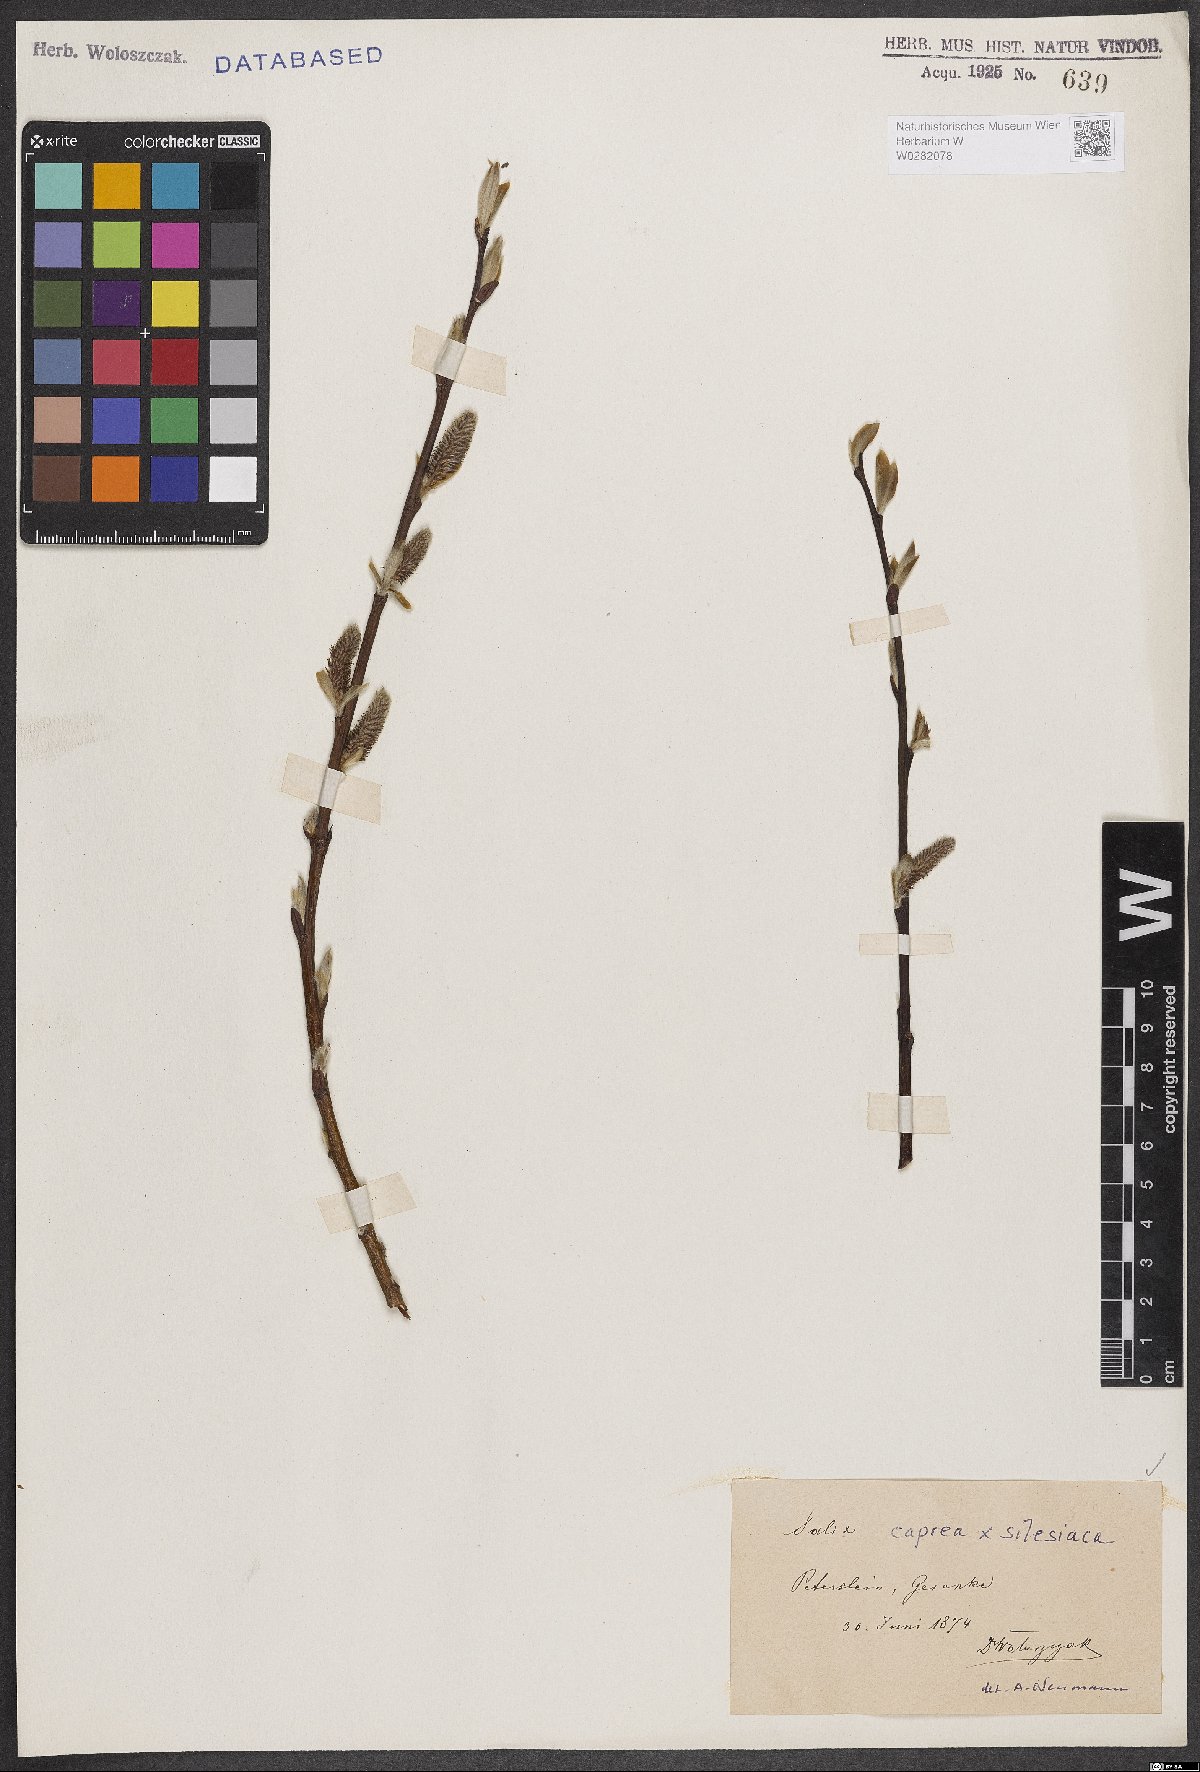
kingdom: Plantae
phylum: Tracheophyta
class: Magnoliopsida
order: Malpighiales
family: Salicaceae
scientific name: Salicaceae
